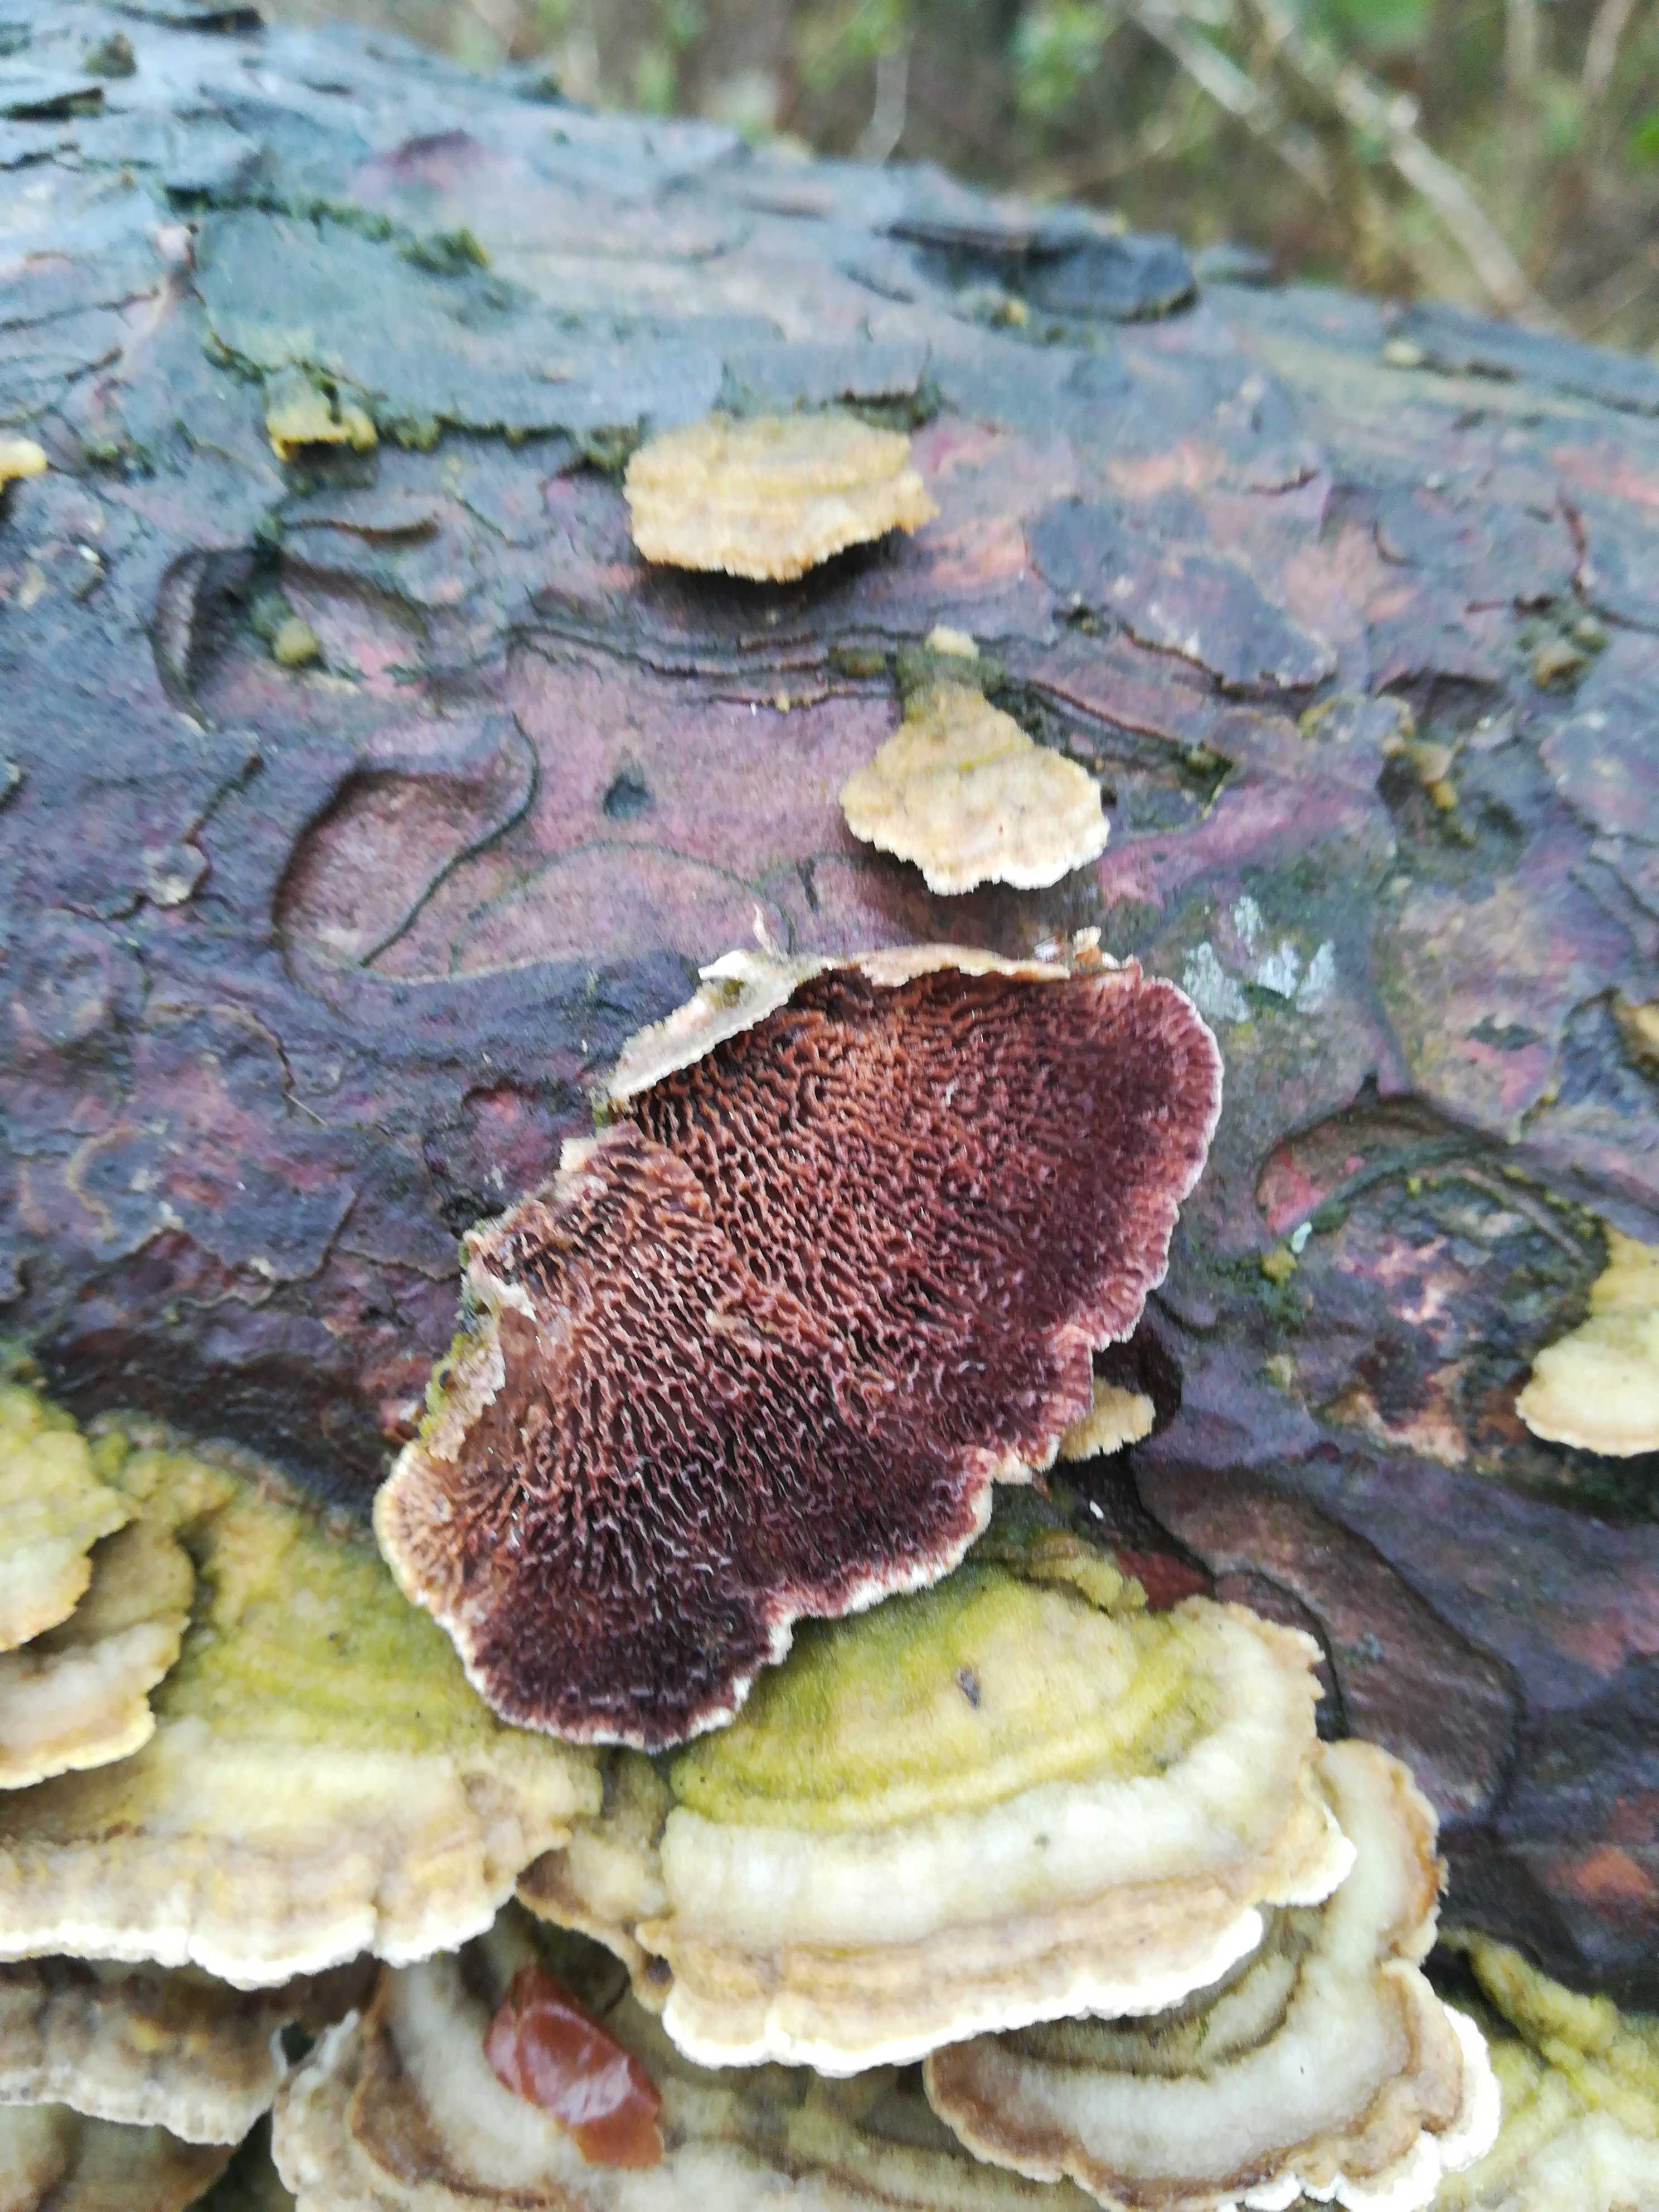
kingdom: Fungi
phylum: Basidiomycota
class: Agaricomycetes
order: Hymenochaetales
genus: Trichaptum
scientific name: Trichaptum abietinum
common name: almindelig violporesvamp
